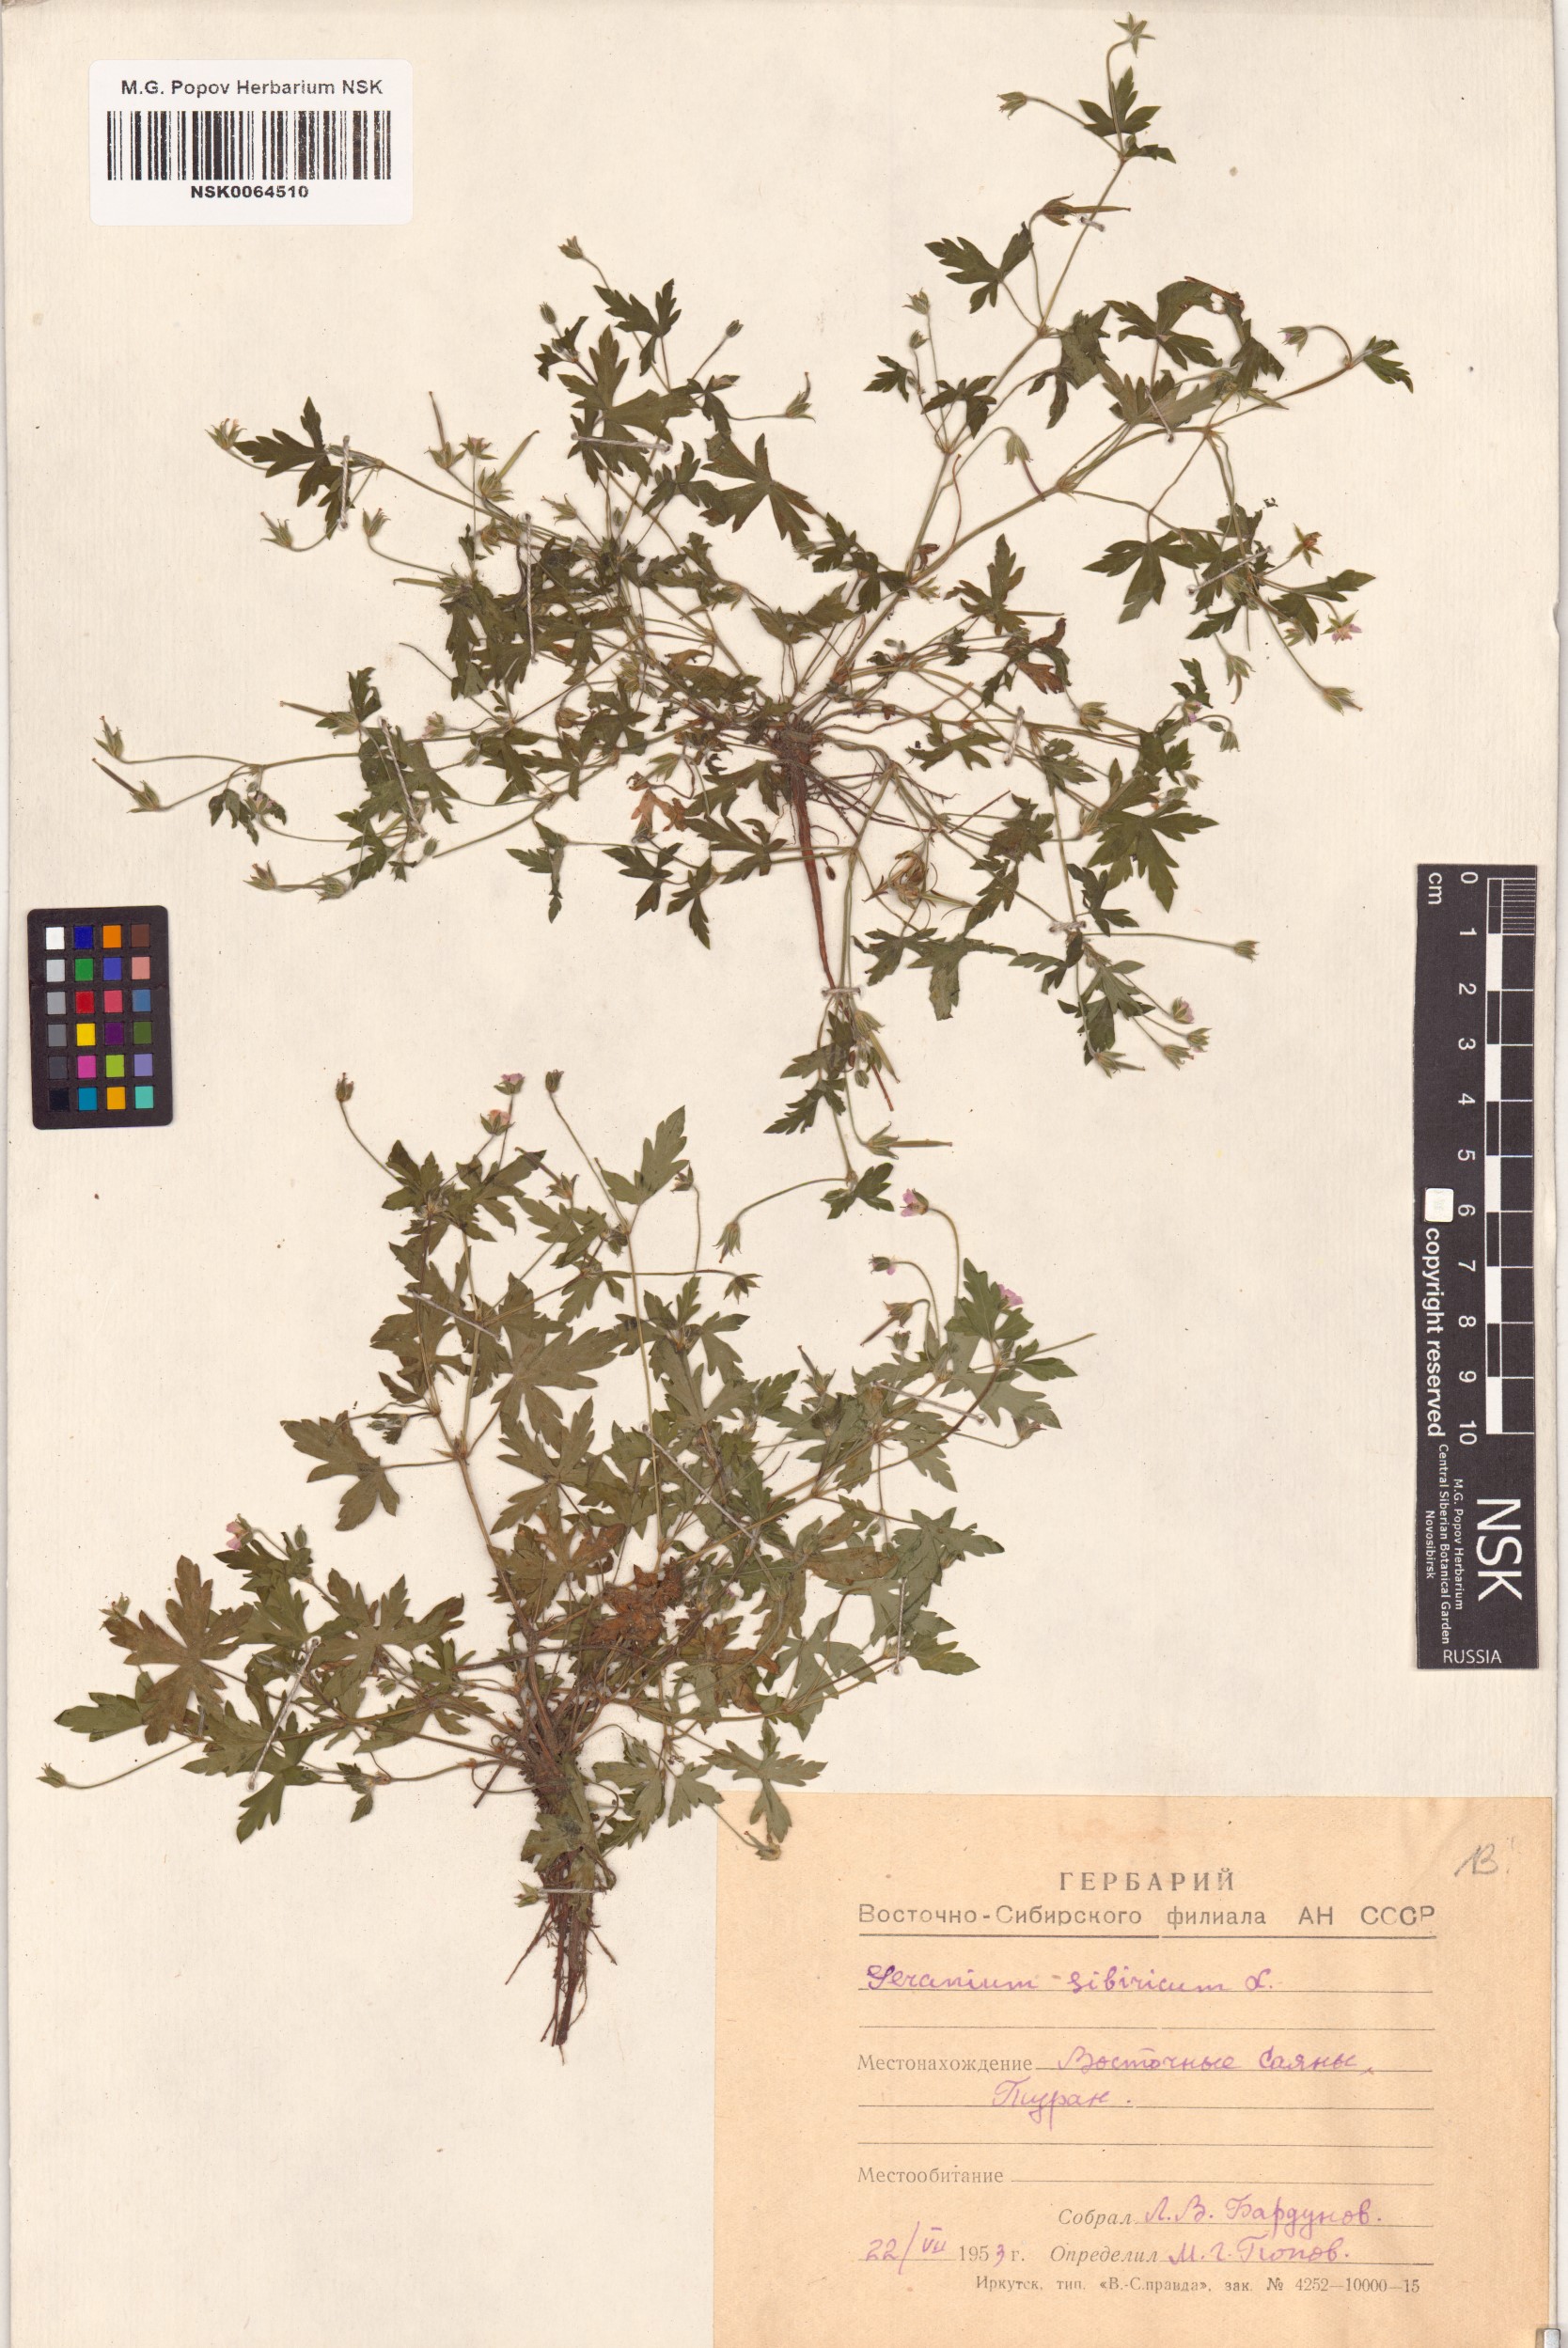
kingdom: Plantae
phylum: Tracheophyta
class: Magnoliopsida
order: Geraniales
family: Geraniaceae
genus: Geranium
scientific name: Geranium sibiricum
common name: Siberian crane's-bill
